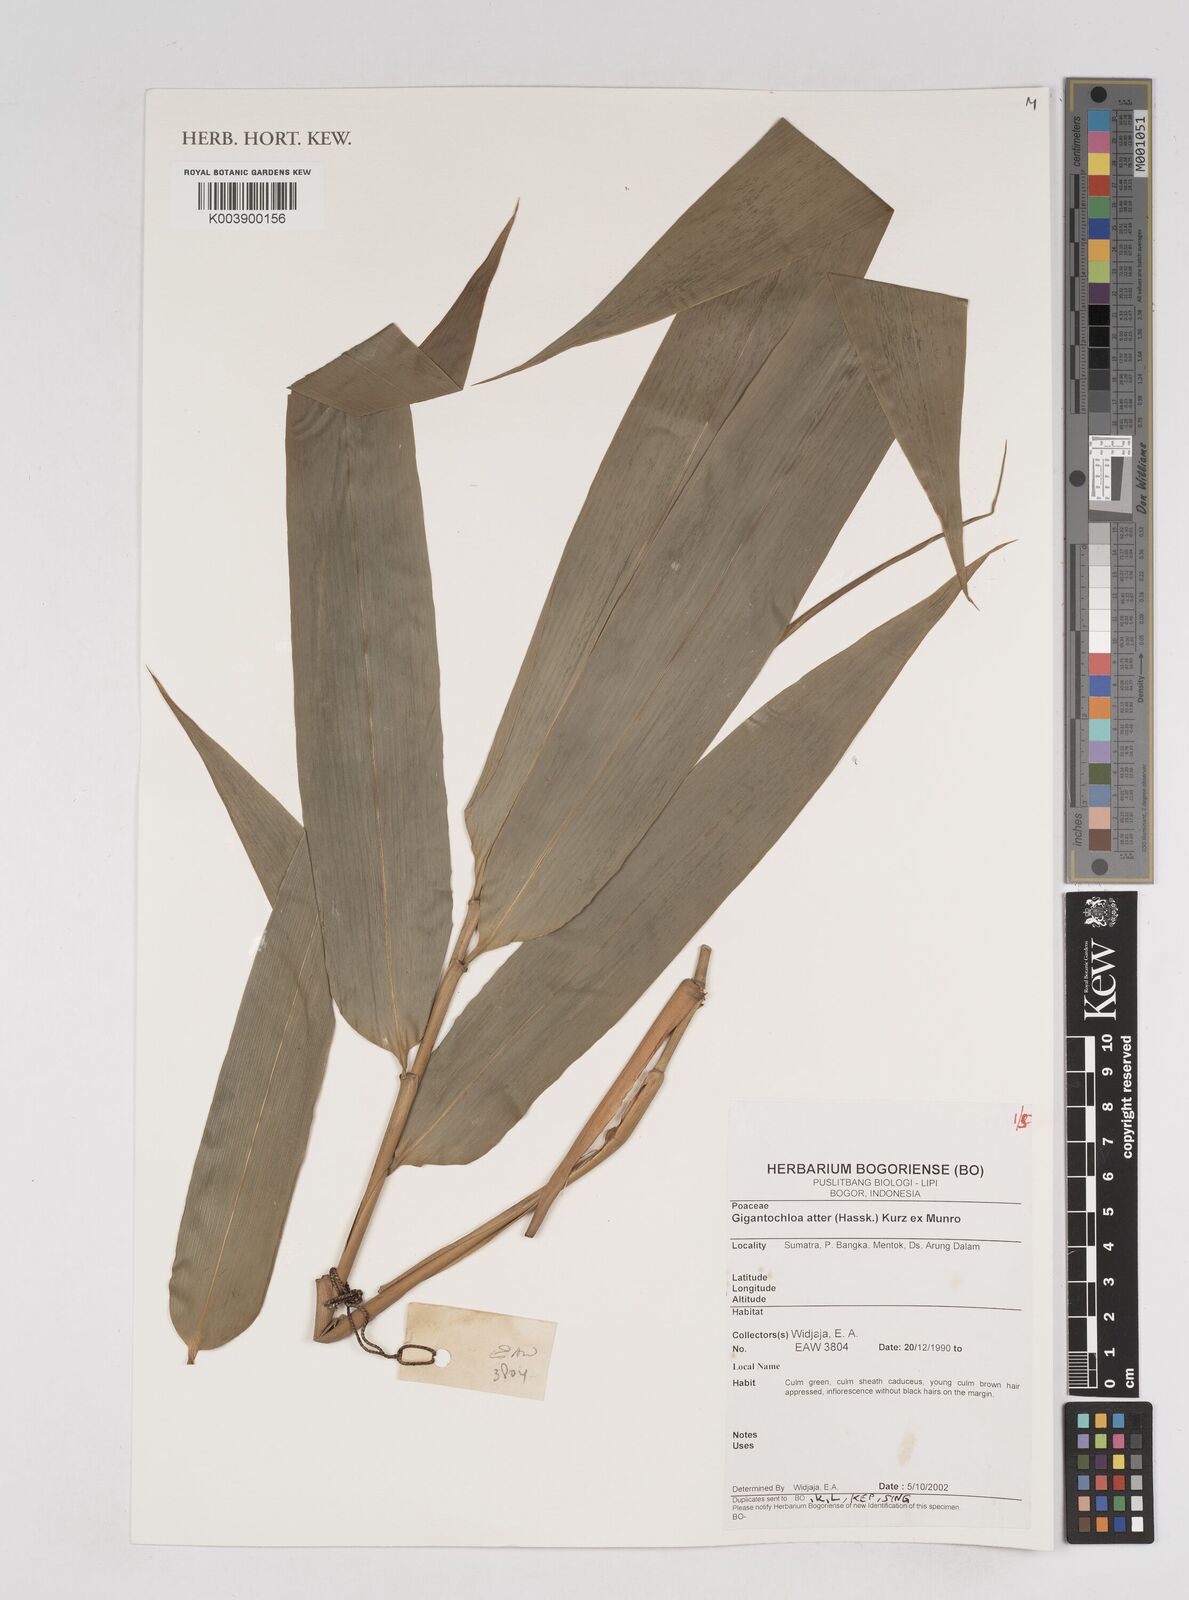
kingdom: Plantae
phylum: Tracheophyta
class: Liliopsida
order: Poales
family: Poaceae
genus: Gigantochloa
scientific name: Gigantochloa atter
